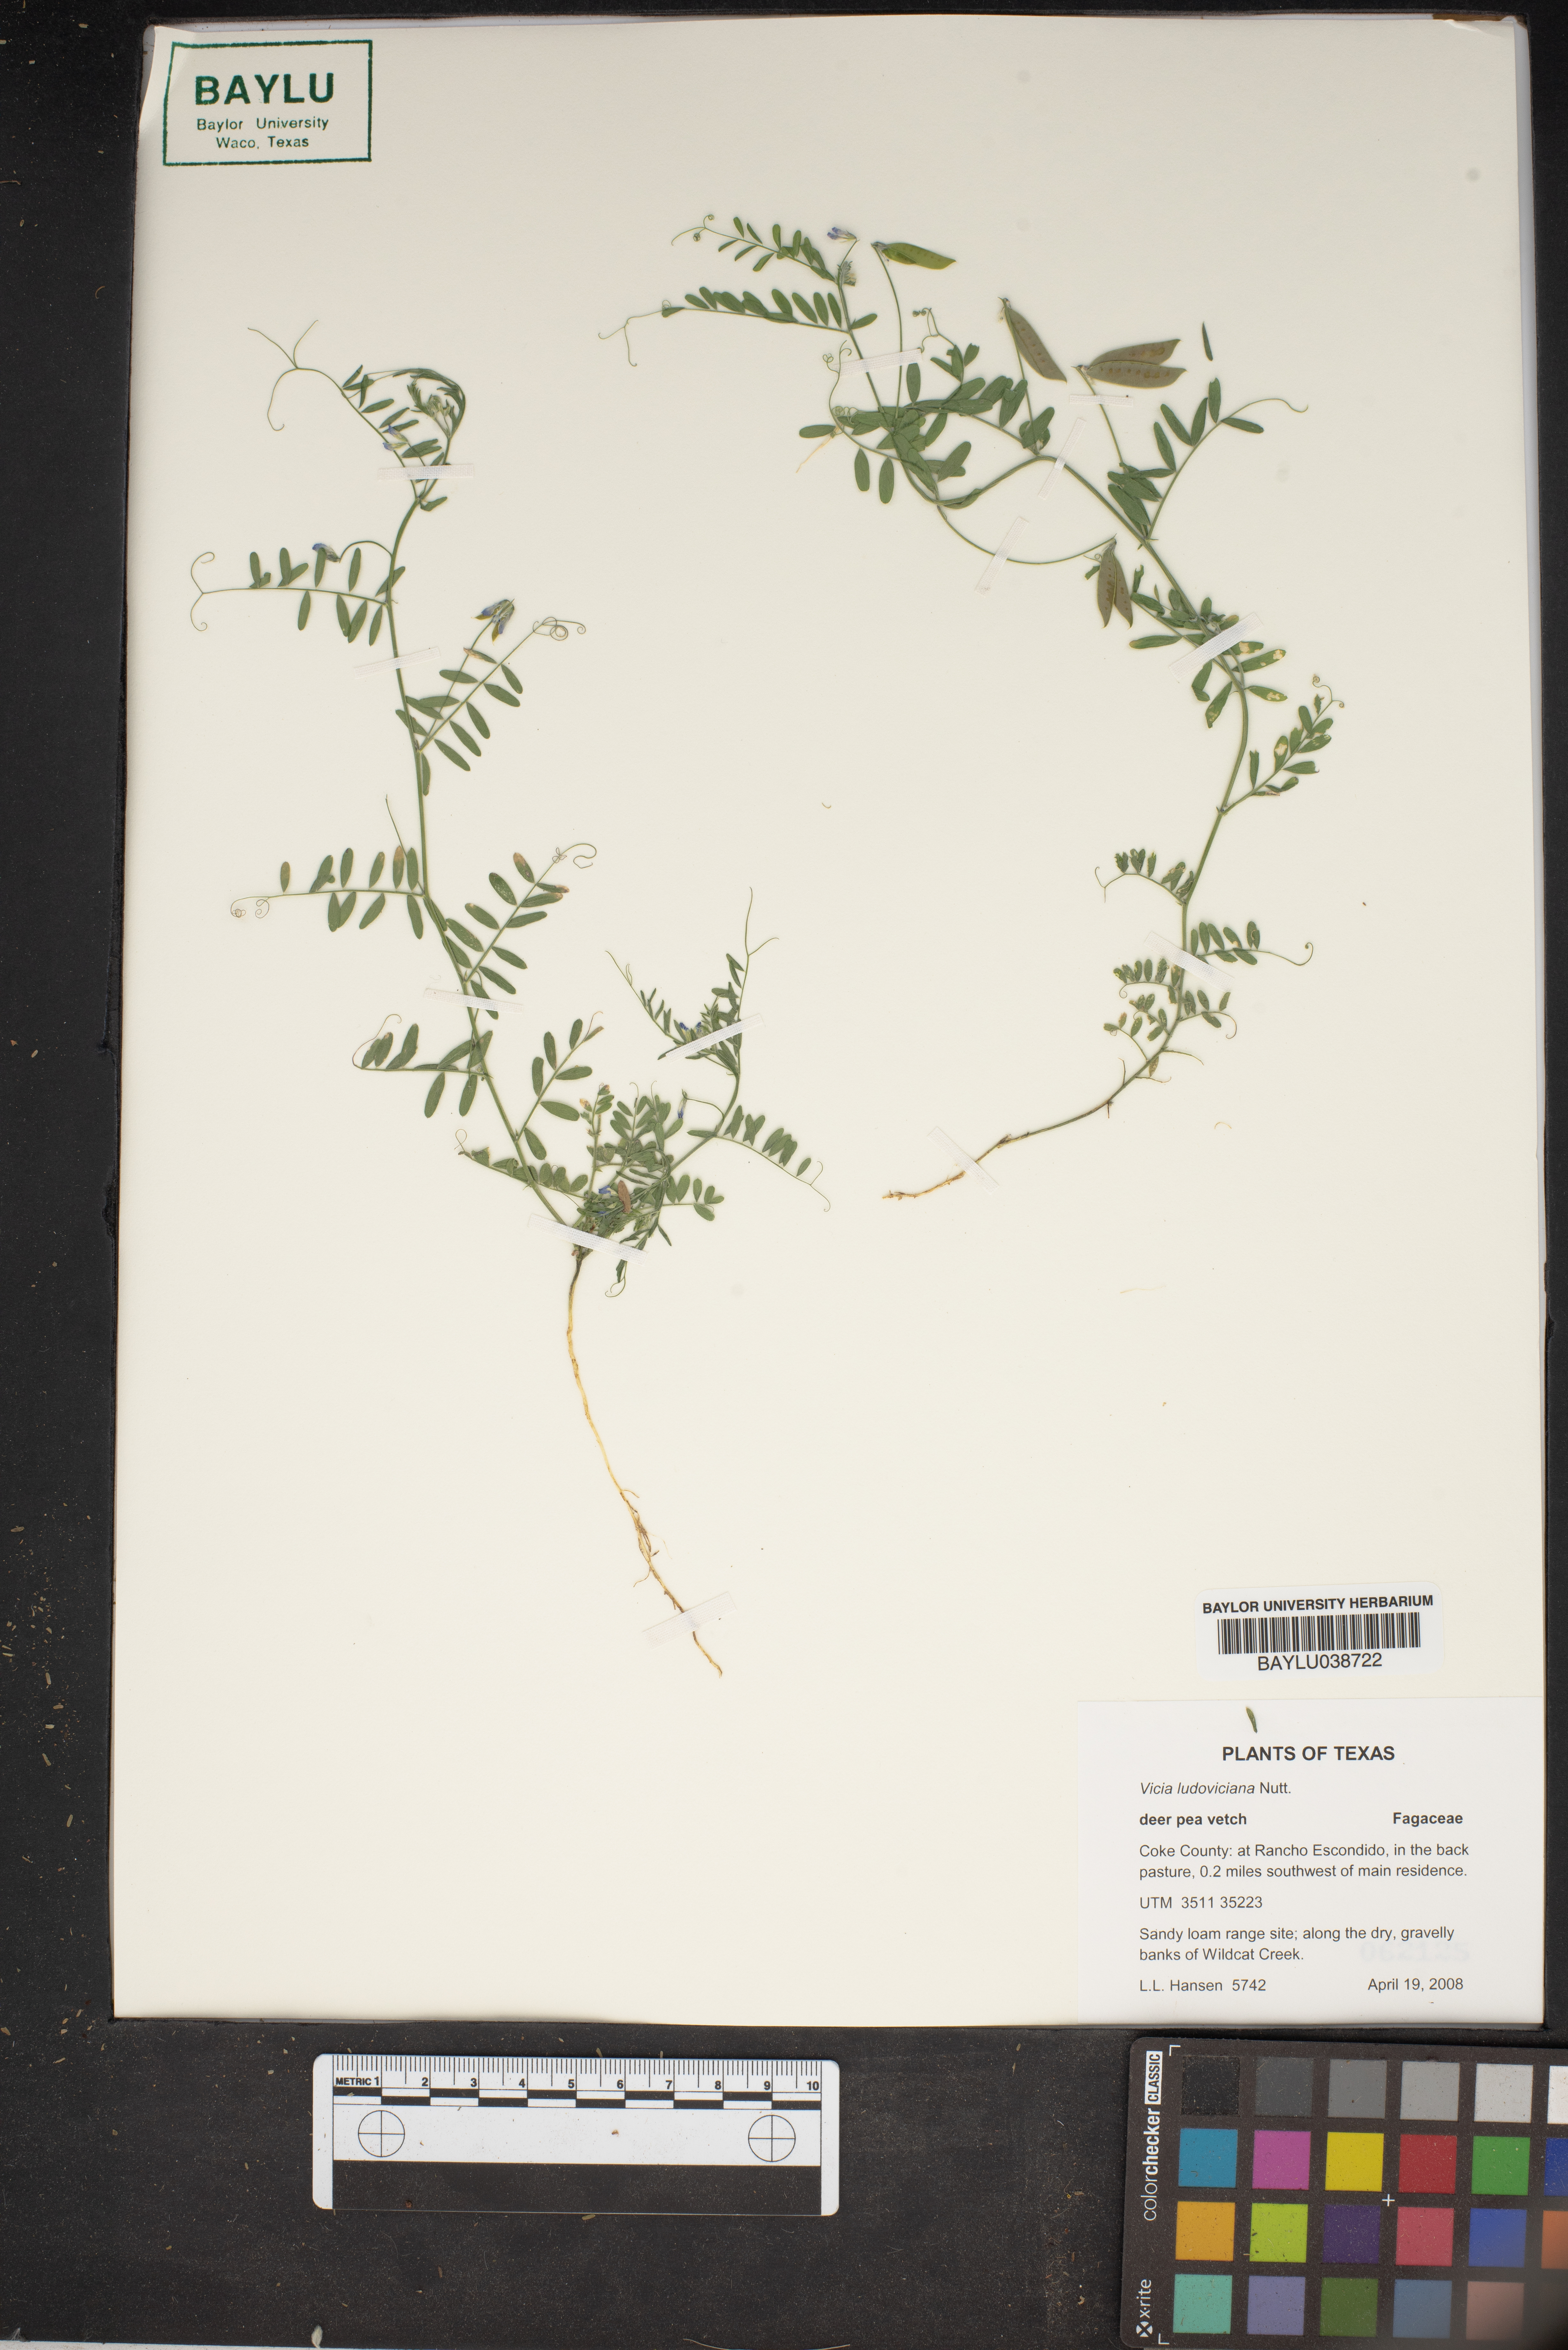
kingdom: Plantae
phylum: Tracheophyta
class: Magnoliopsida
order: Fabales
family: Fabaceae
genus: Vicia
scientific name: Vicia ludoviciana
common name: Louisiana vetch
